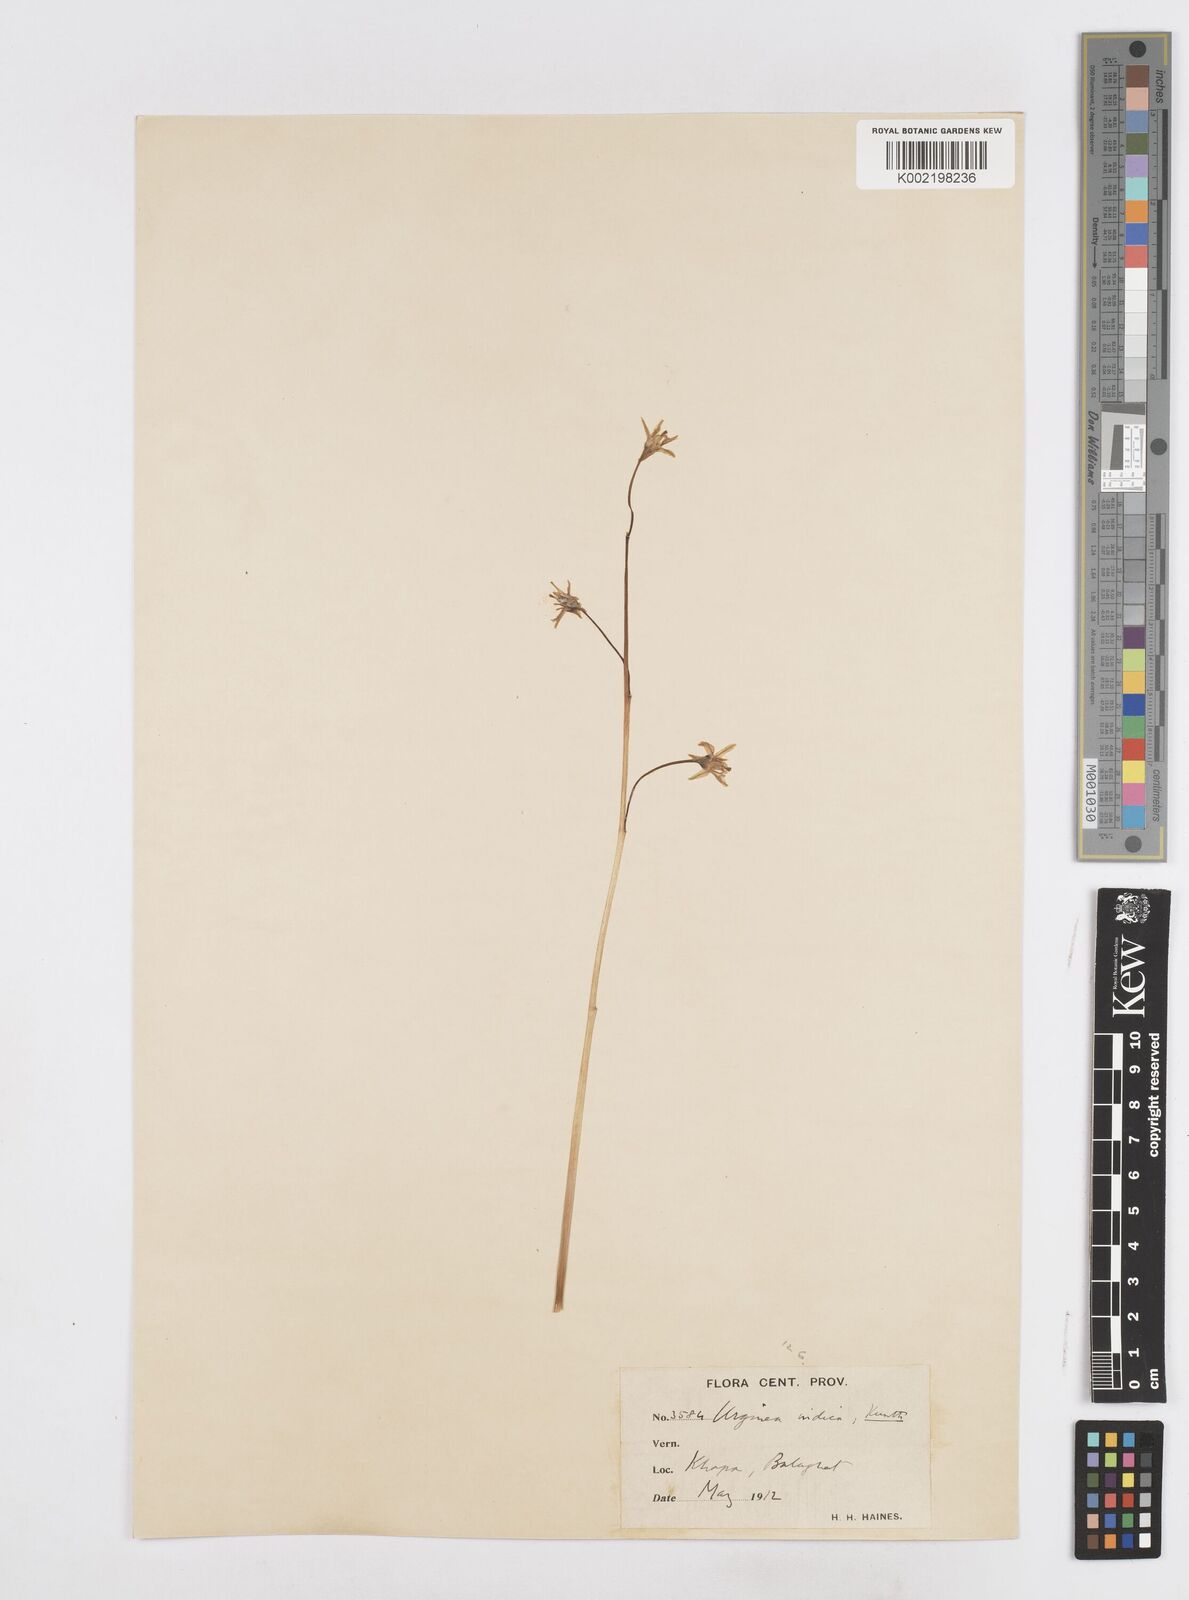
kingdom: Plantae
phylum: Tracheophyta
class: Liliopsida
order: Asparagales
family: Asparagaceae
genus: Drimia
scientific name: Drimia indica
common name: Indian-squill
